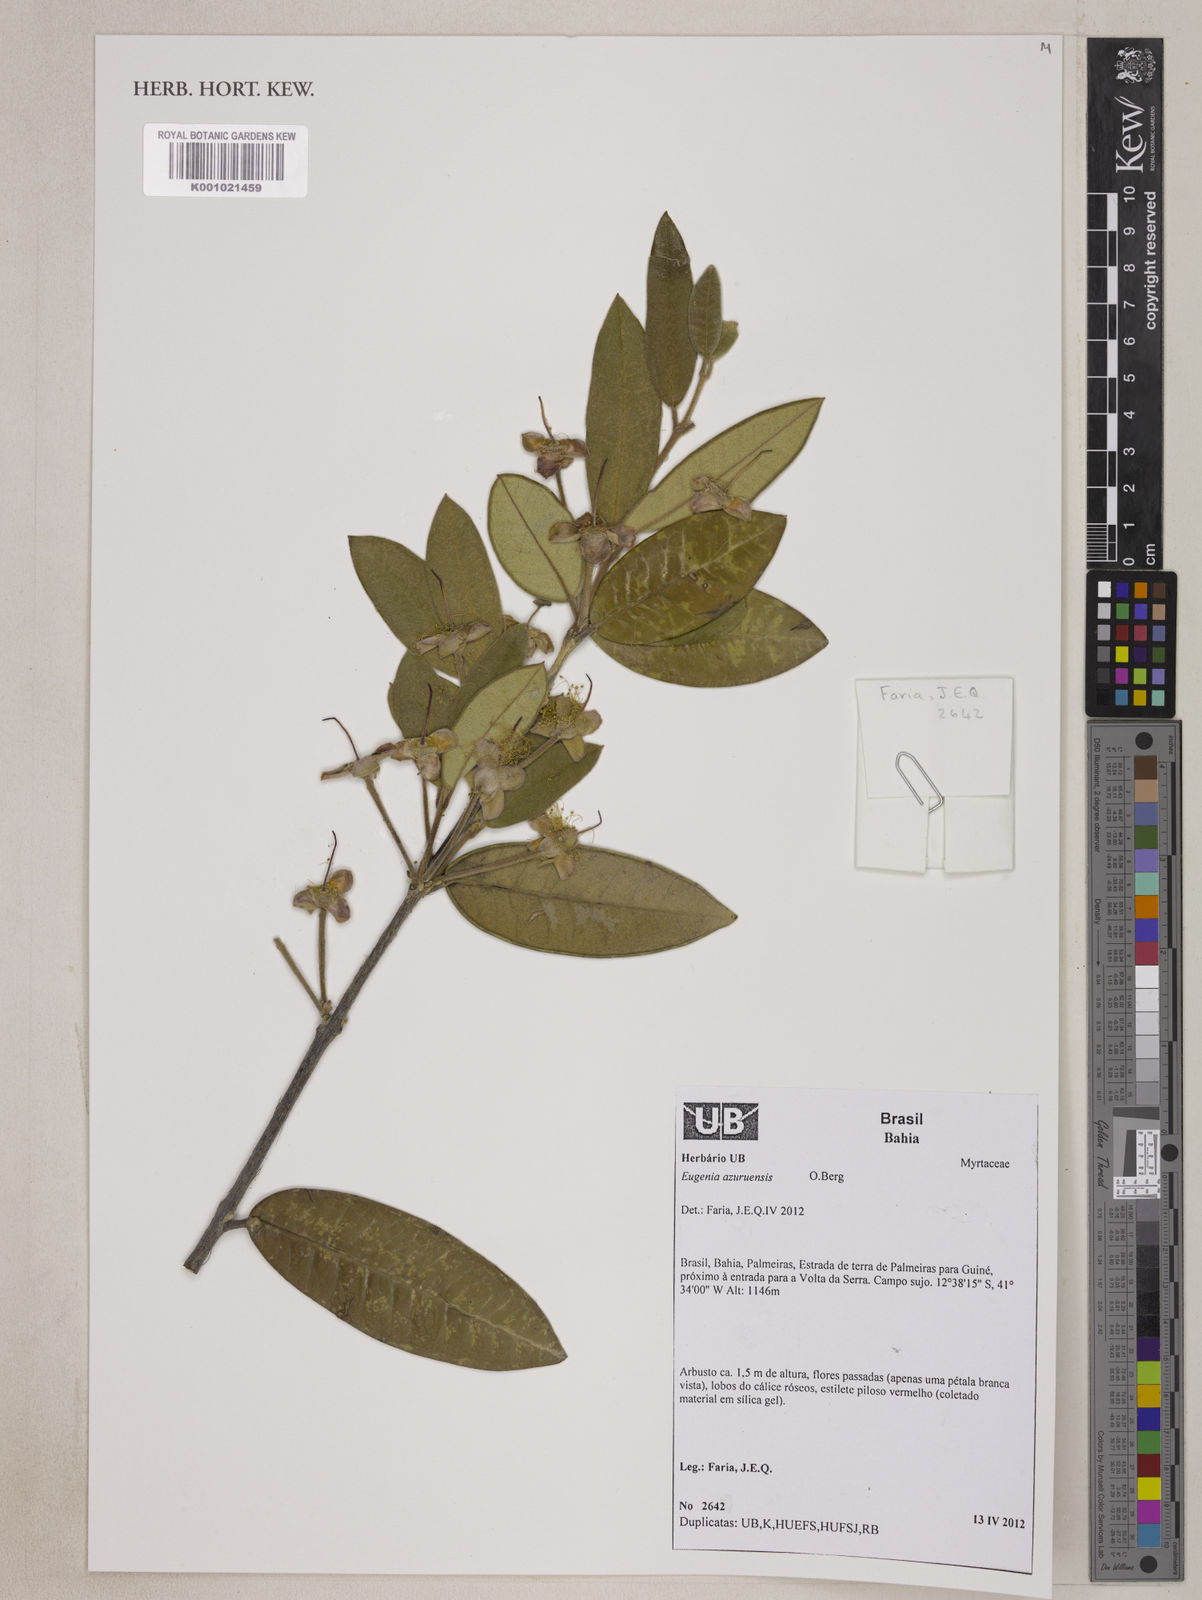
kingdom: Plantae
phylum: Tracheophyta
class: Magnoliopsida
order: Myrtales
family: Myrtaceae
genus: Eugenia
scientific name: Eugenia azurensis
